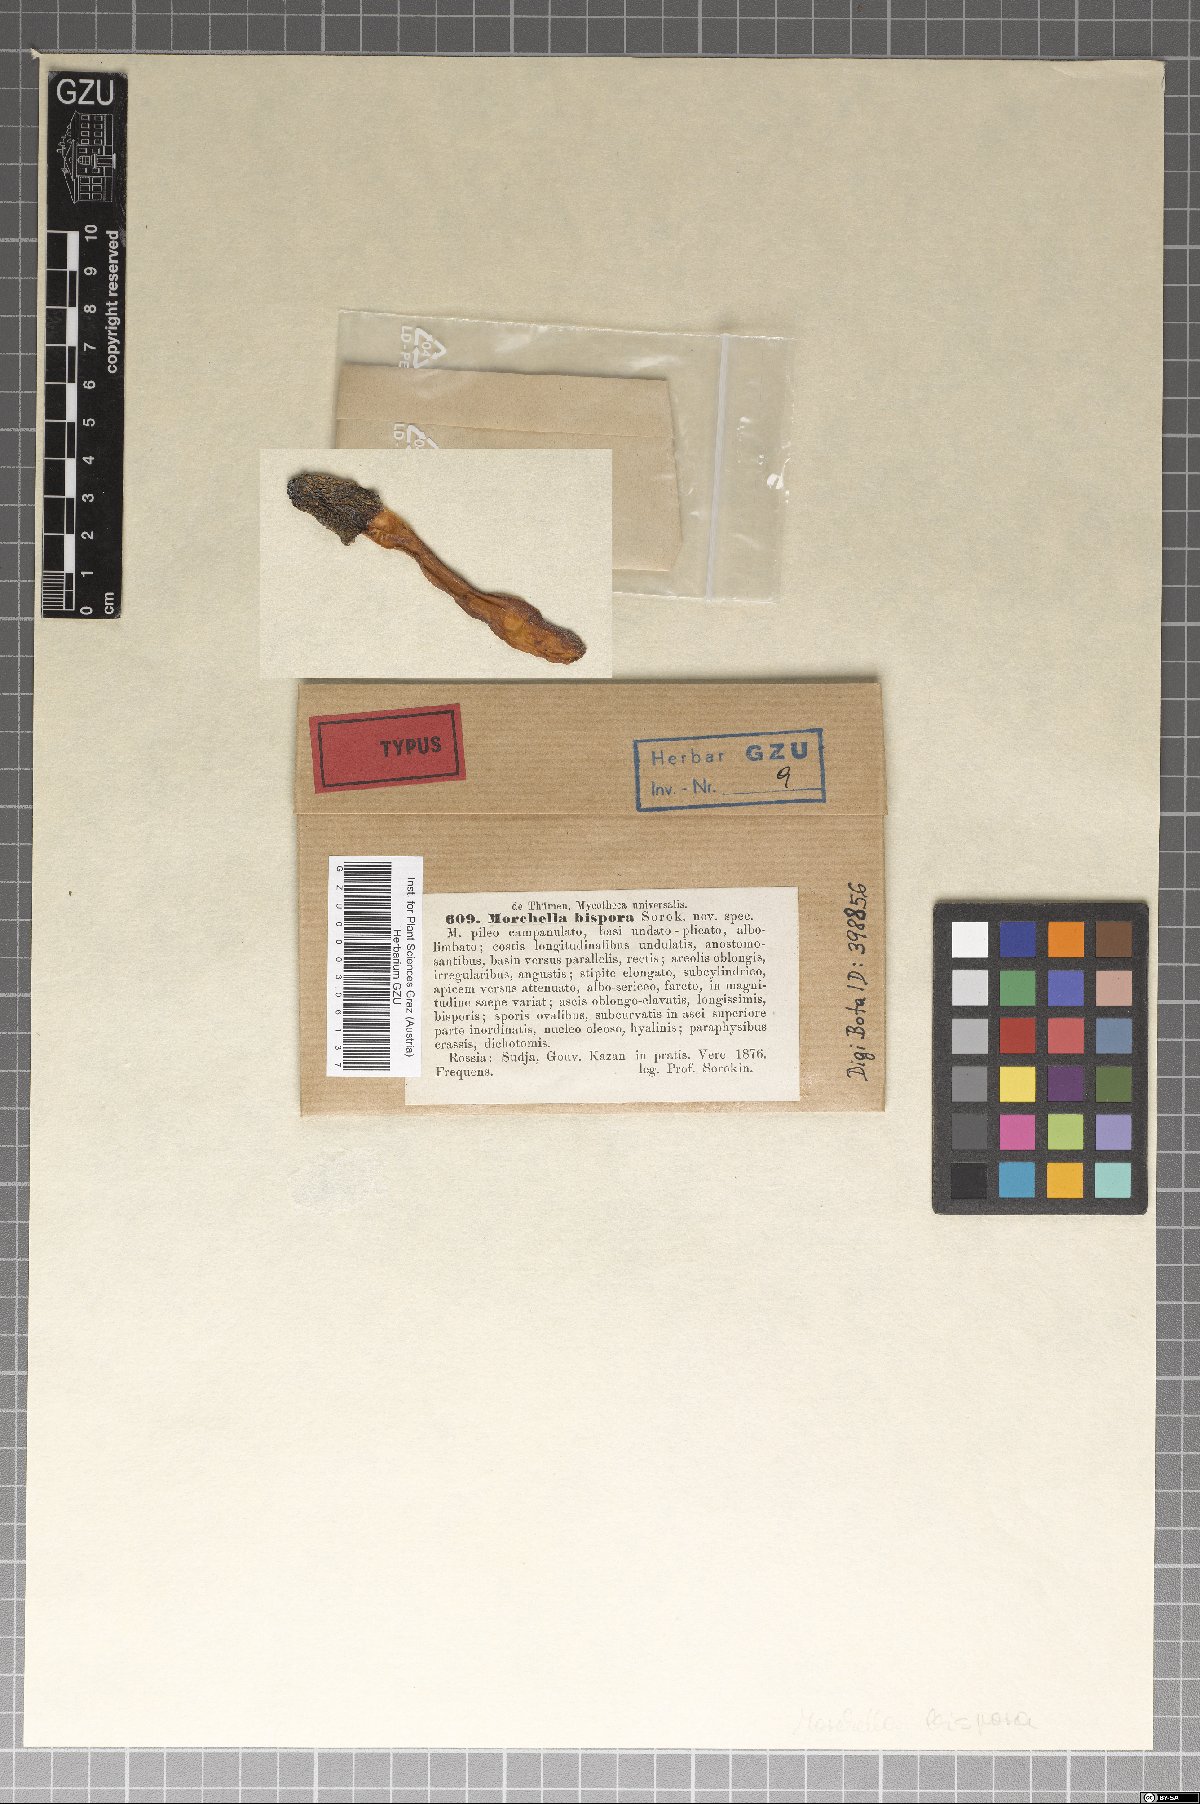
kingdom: Fungi
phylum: Ascomycota
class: Pezizomycetes
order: Pezizales
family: Morchellaceae
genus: Verpa
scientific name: Verpa bohemica
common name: Wrinkled thimble morel
